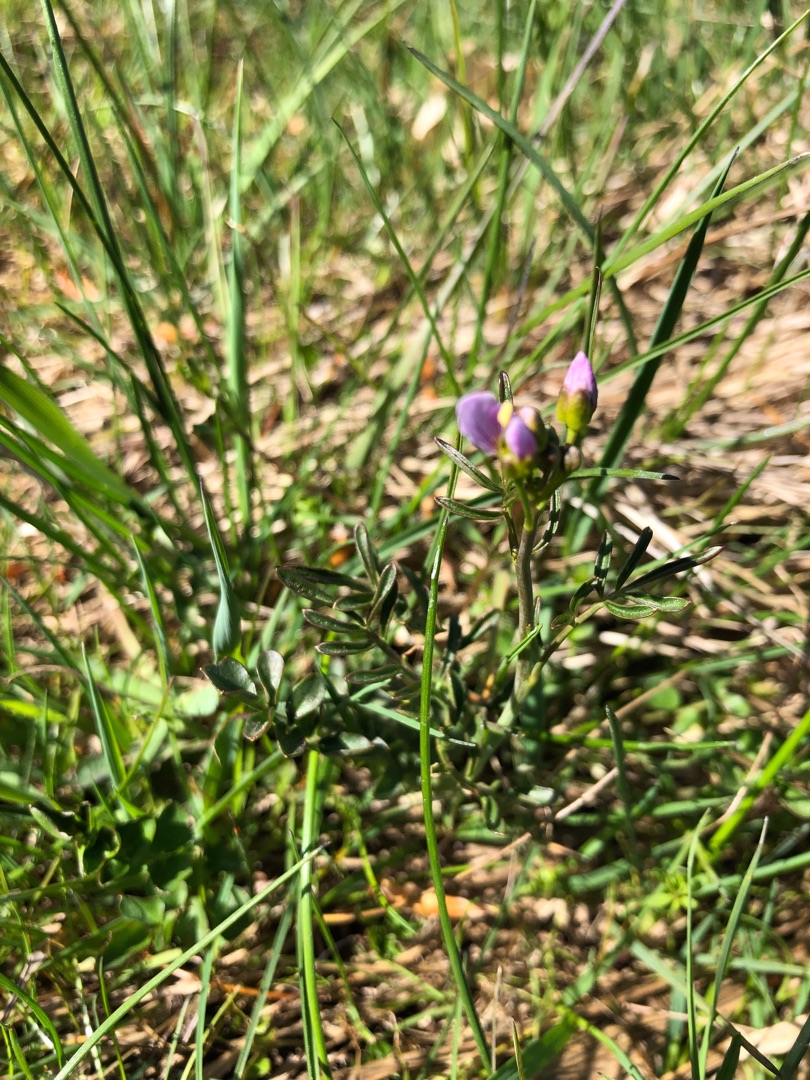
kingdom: Plantae
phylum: Tracheophyta
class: Magnoliopsida
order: Brassicales
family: Brassicaceae
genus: Cardamine
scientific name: Cardamine pratensis
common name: Engkarse
